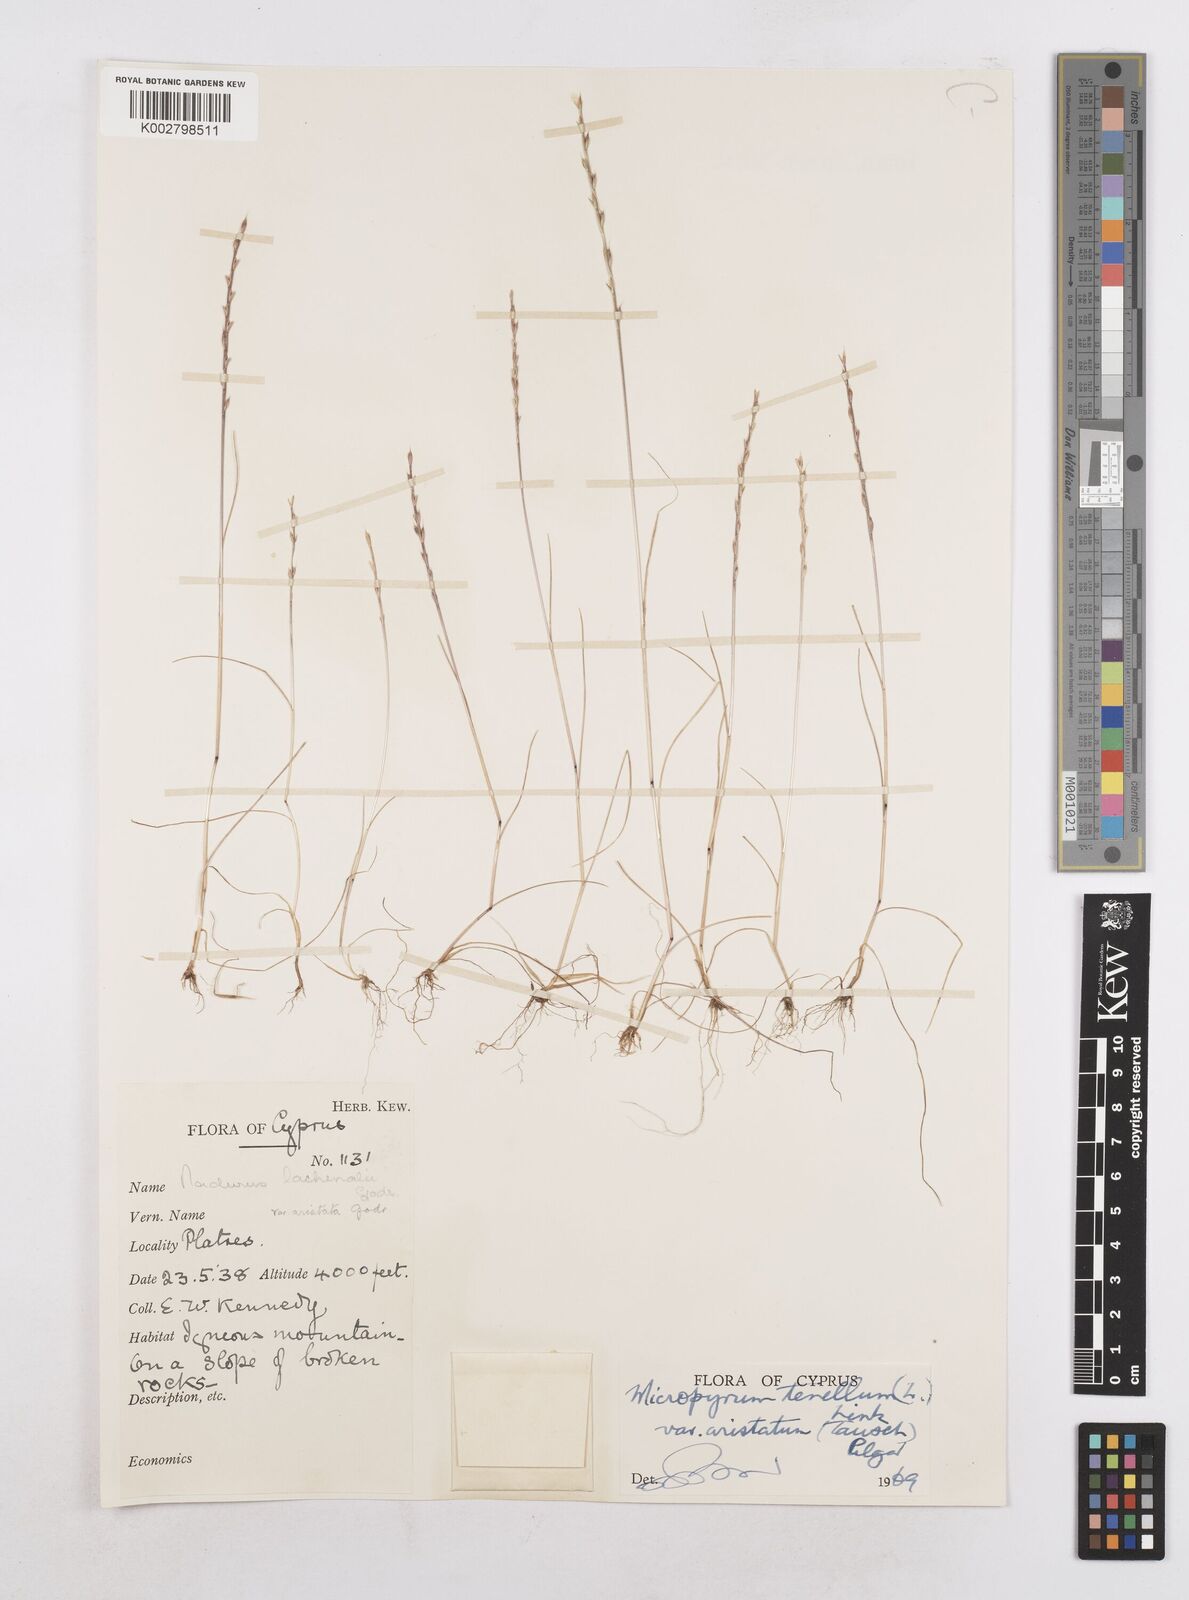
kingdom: Plantae
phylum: Tracheophyta
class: Liliopsida
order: Poales
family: Poaceae
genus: Festuca
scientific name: Festuca lachenalii
